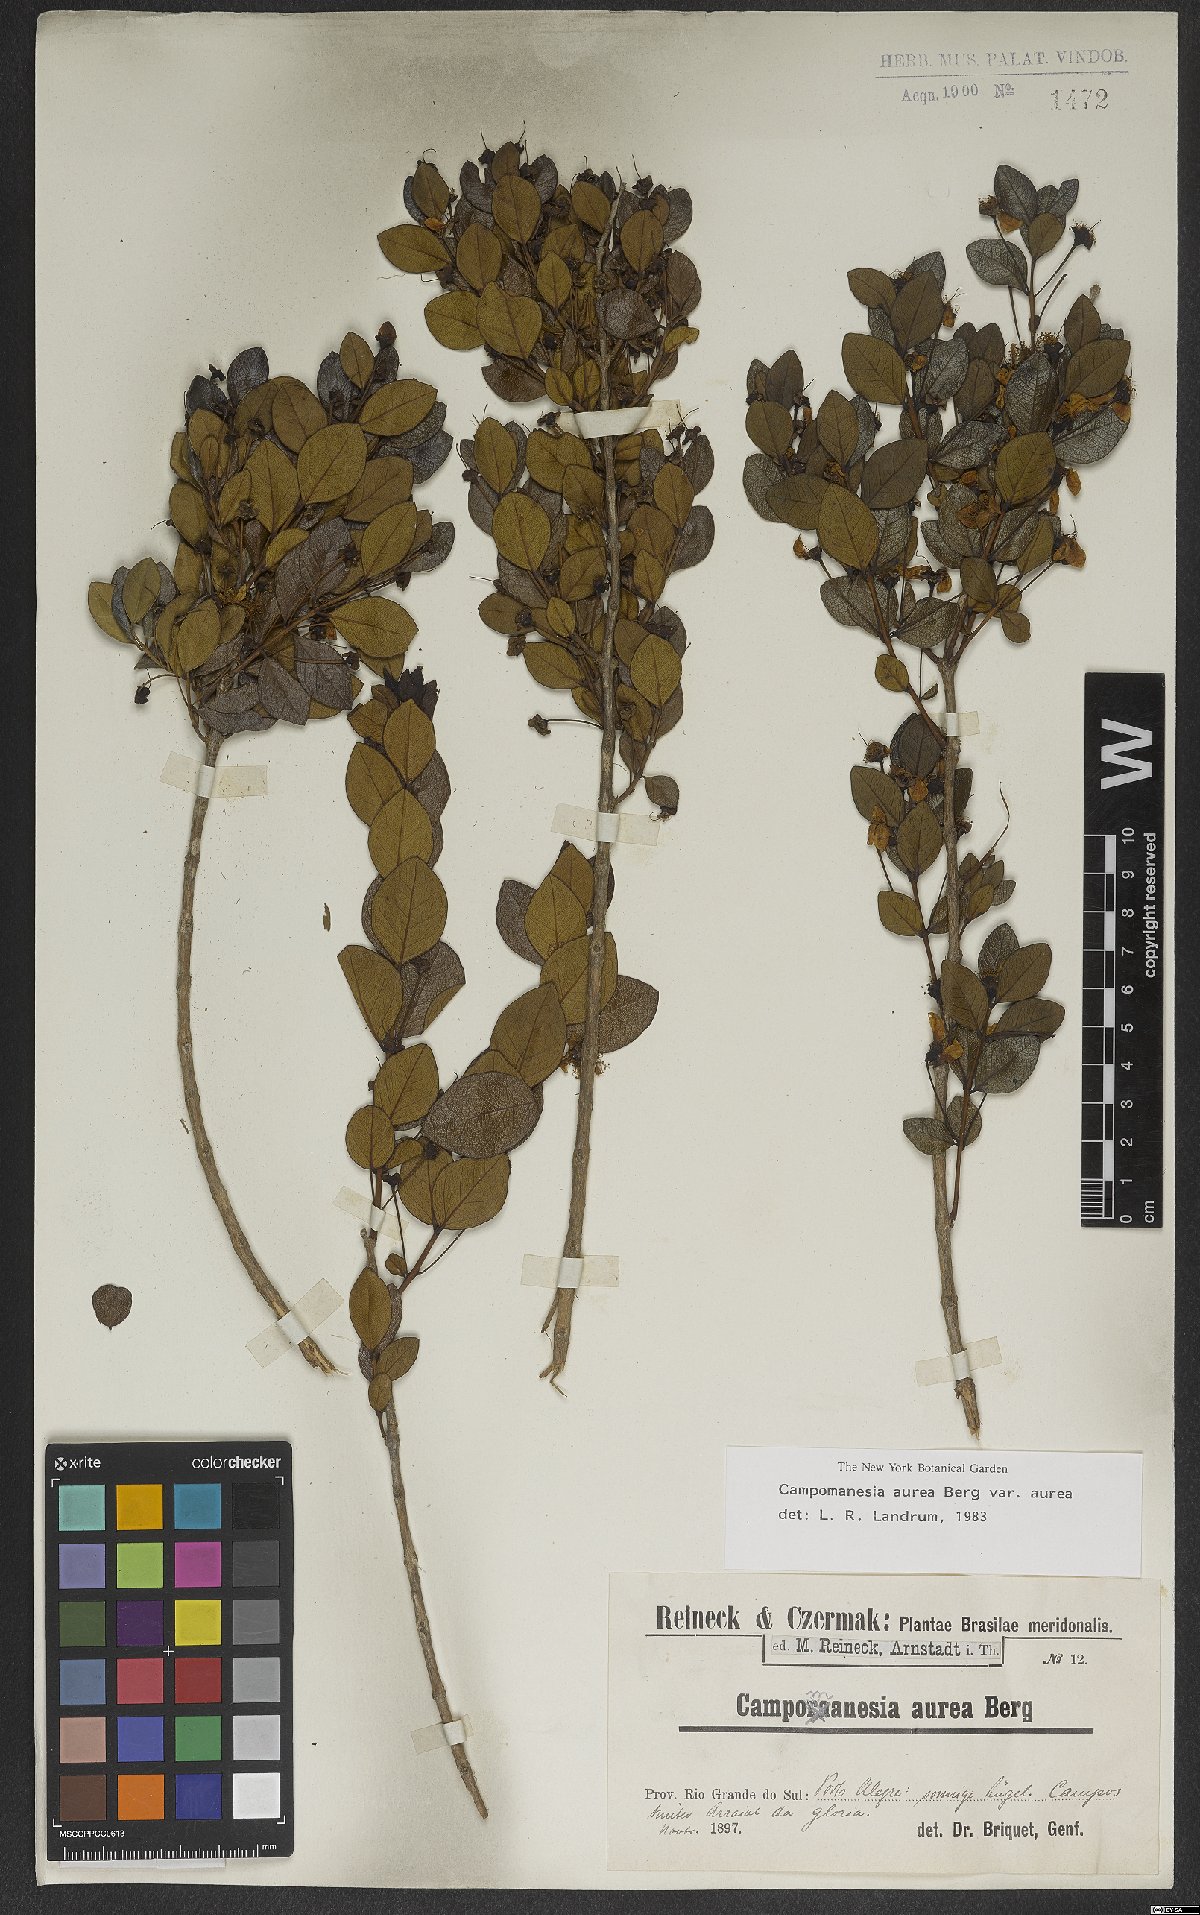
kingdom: Plantae
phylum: Tracheophyta
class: Magnoliopsida
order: Myrtales
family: Myrtaceae
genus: Campomanesia
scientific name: Campomanesia aurea
